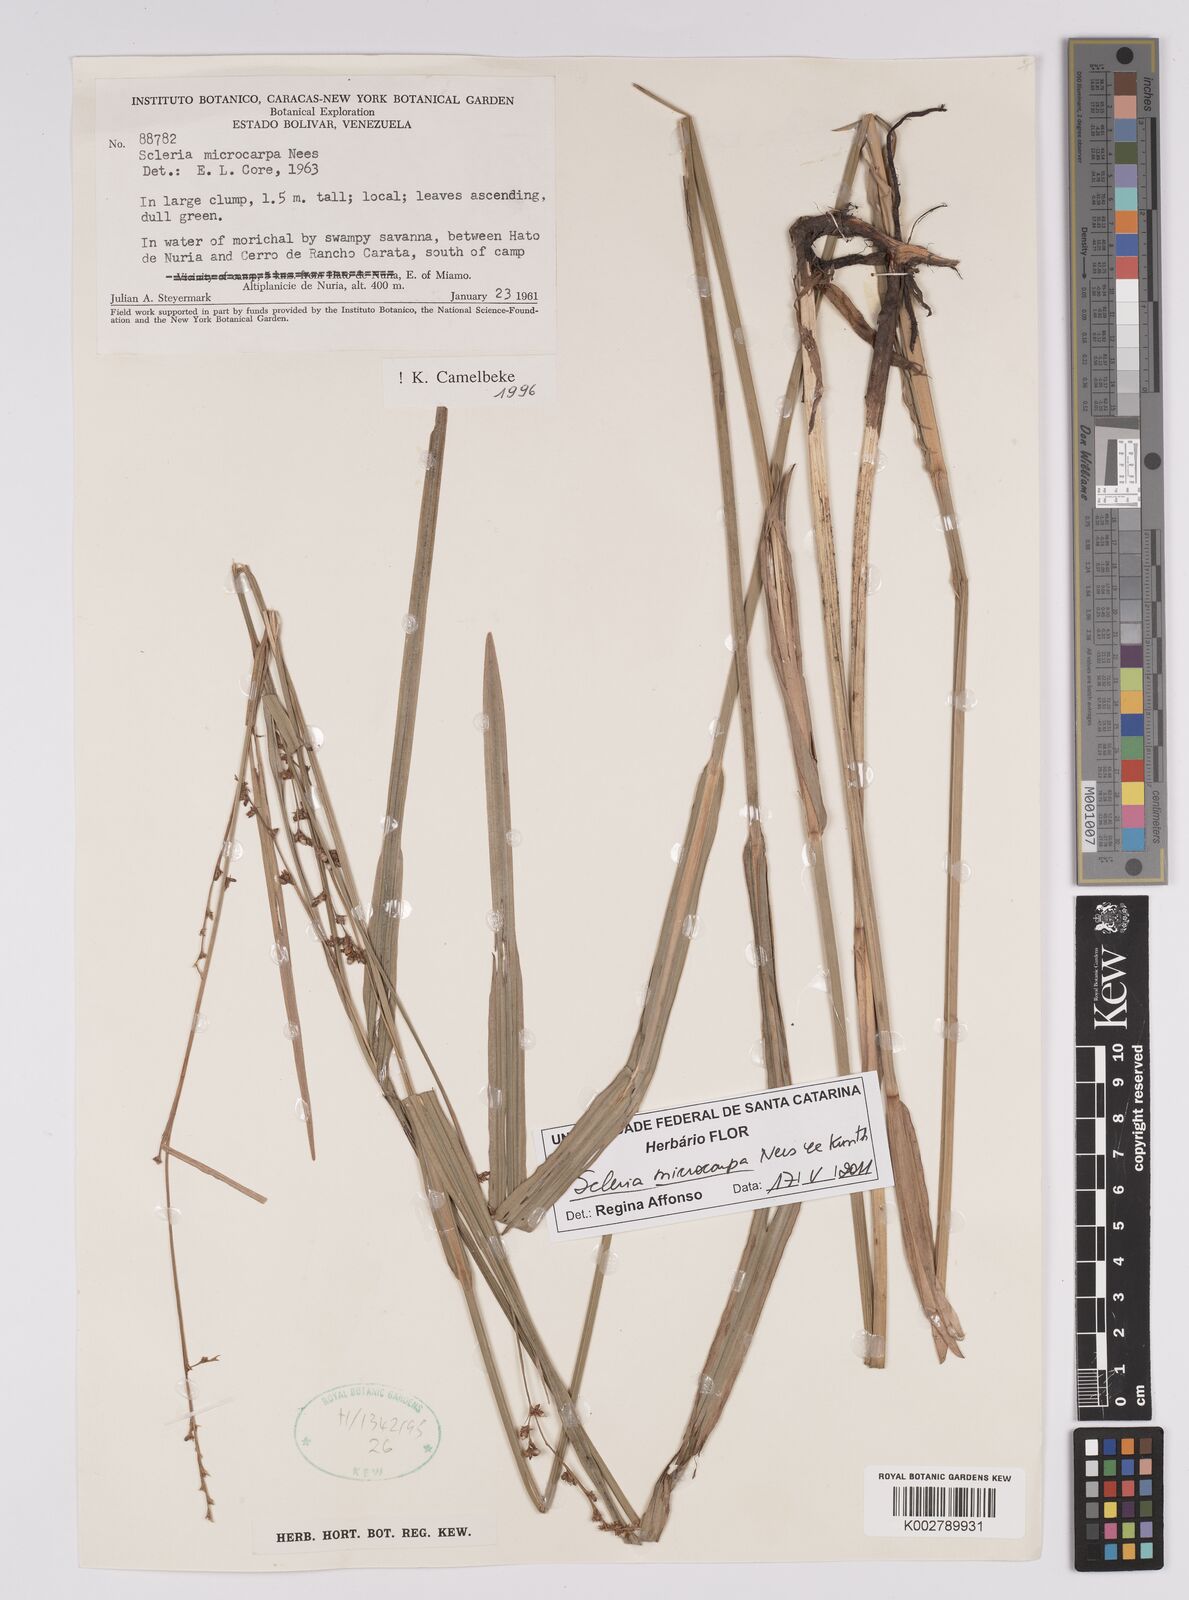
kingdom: Plantae
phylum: Tracheophyta
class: Liliopsida
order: Poales
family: Cyperaceae
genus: Scleria
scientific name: Scleria microcarpa
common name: Tropical nutrush
